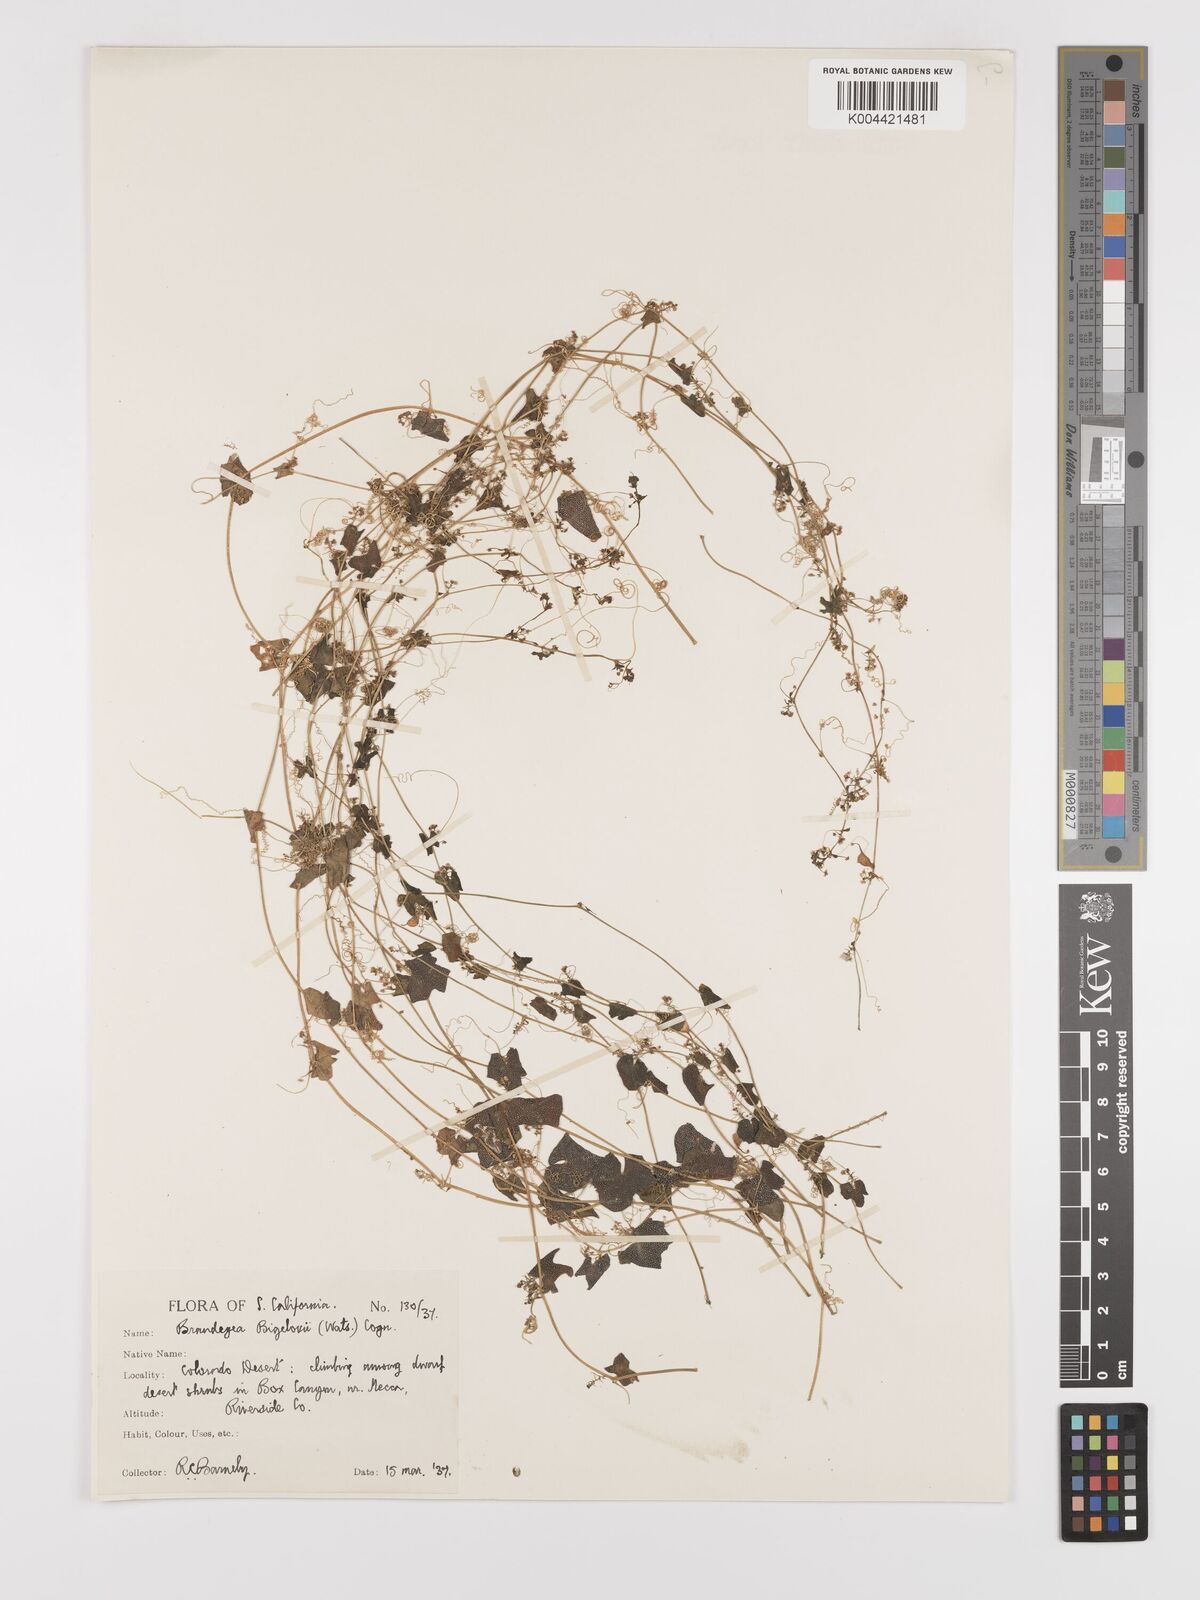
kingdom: Plantae
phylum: Tracheophyta
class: Magnoliopsida
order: Cucurbitales
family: Cucurbitaceae
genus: Echinopepon
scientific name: Echinopepon bigelovii
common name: Desert starvine
